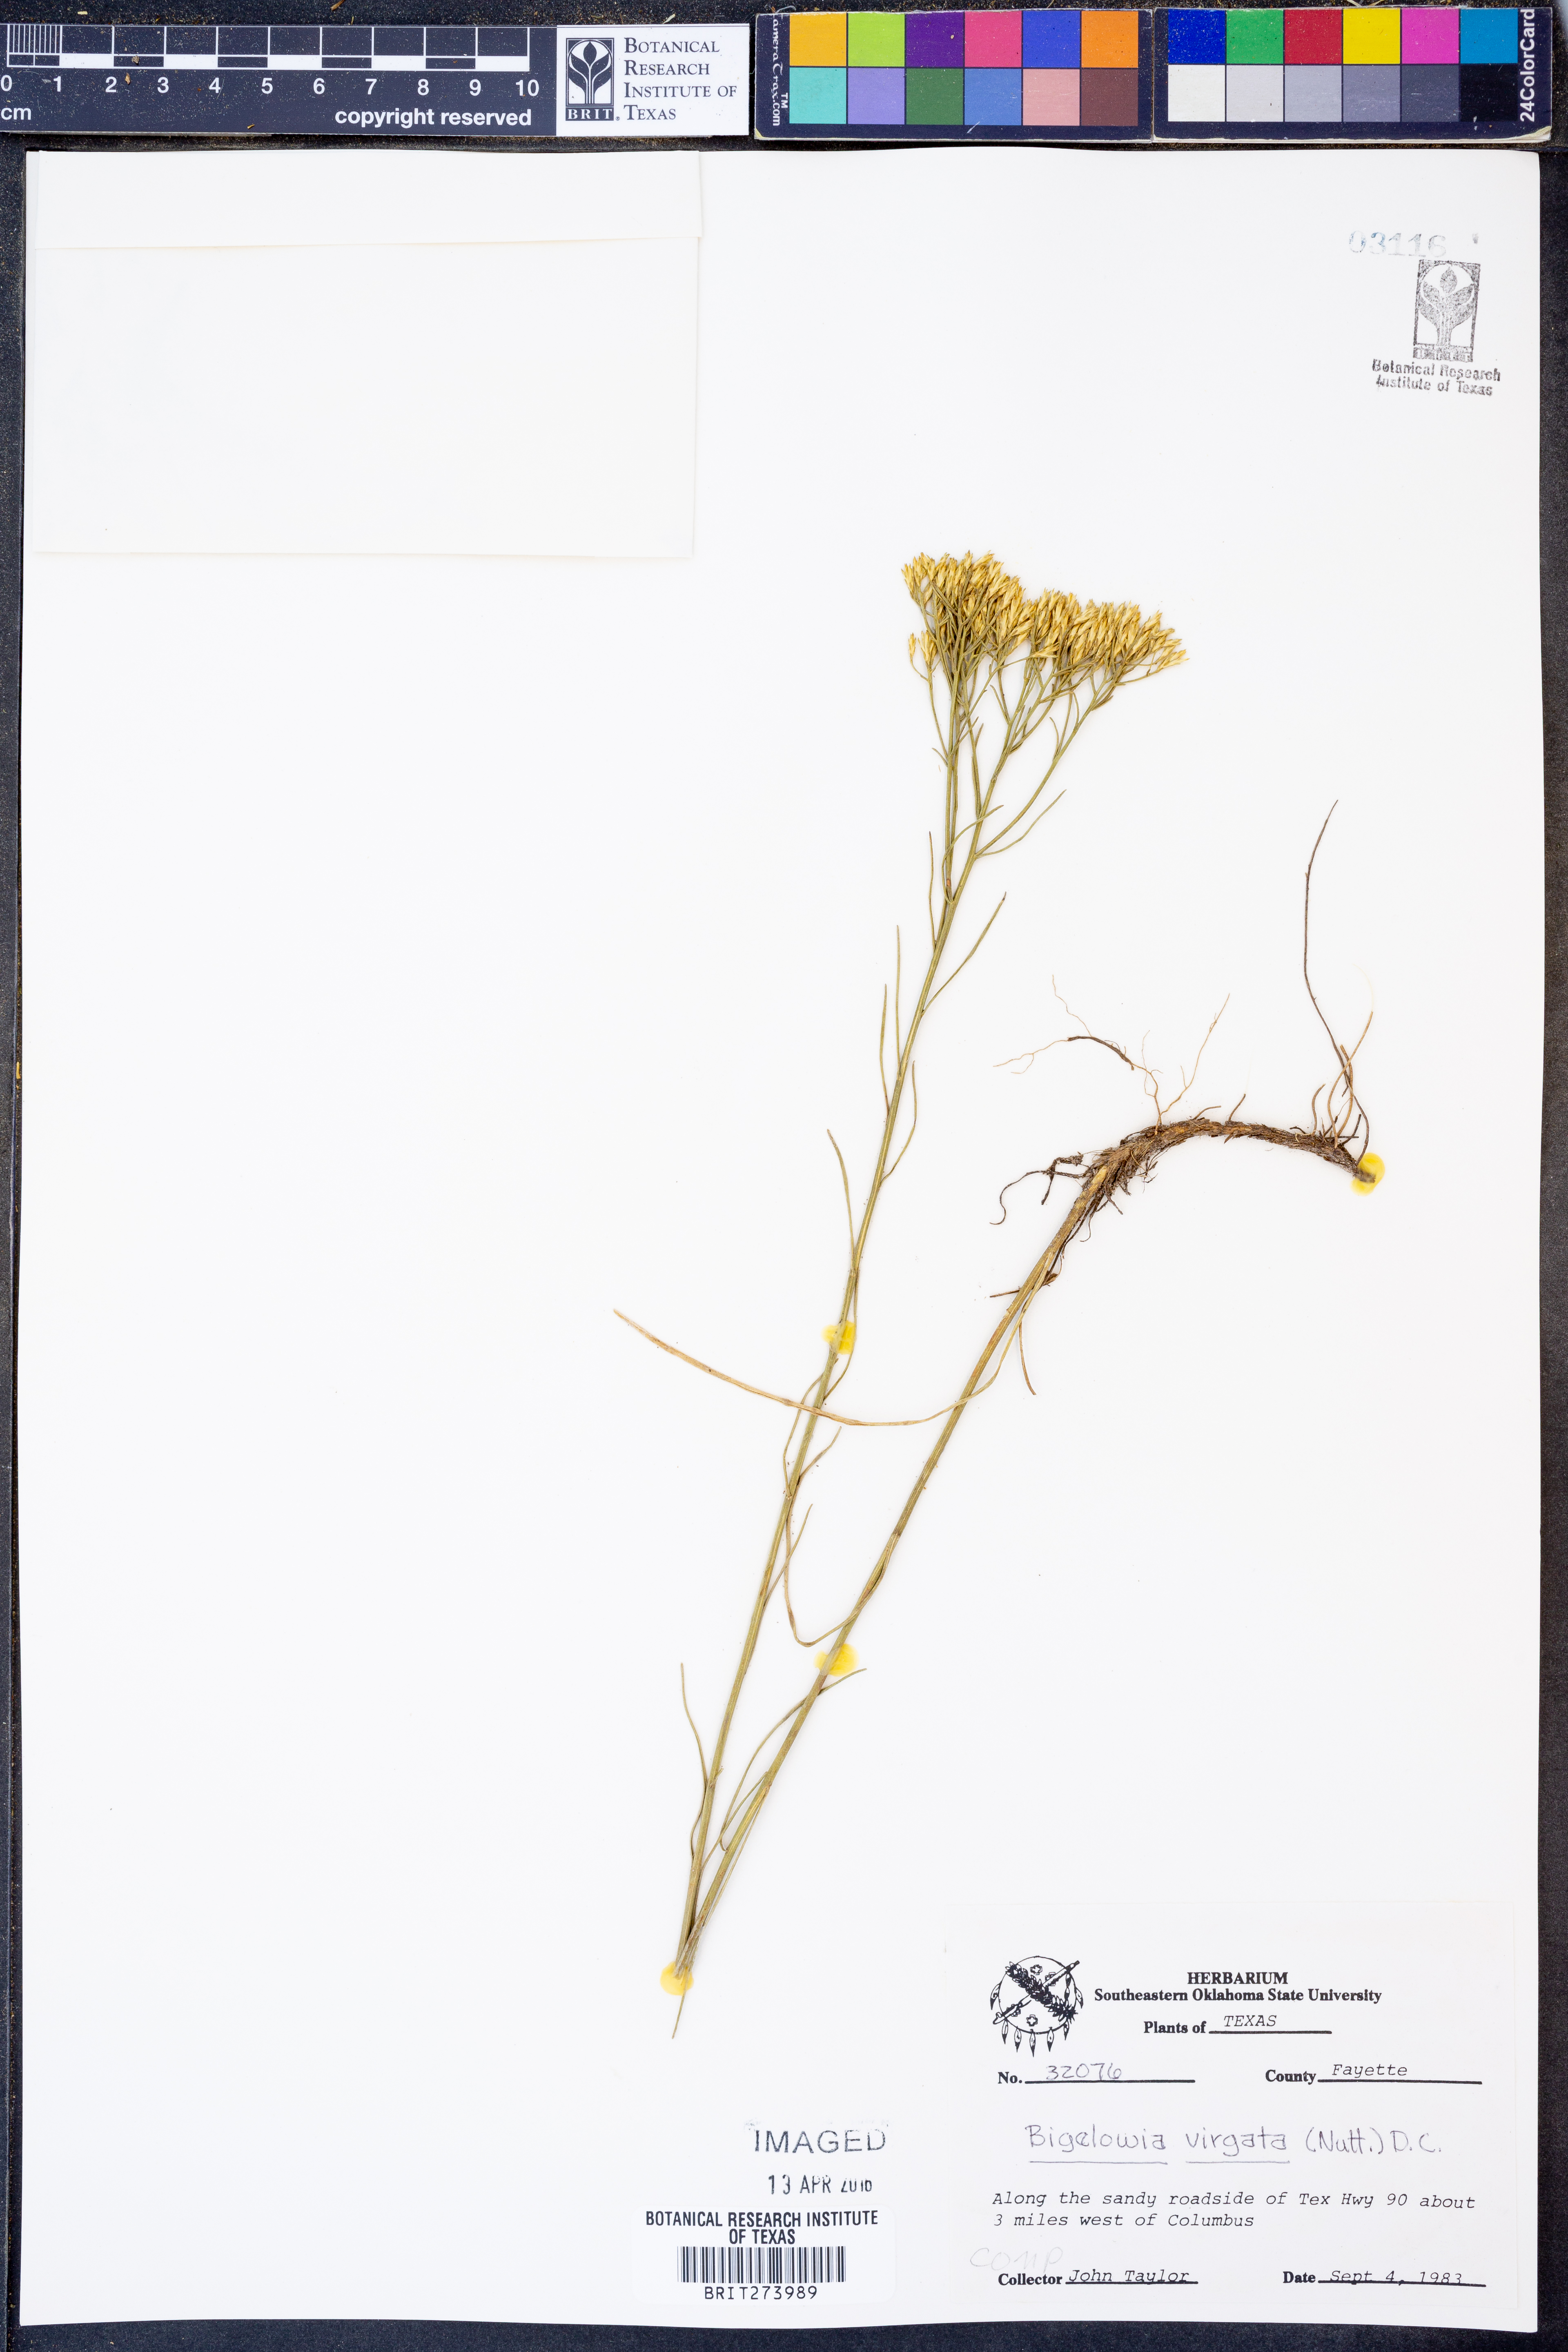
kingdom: Plantae
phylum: Tracheophyta
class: Magnoliopsida
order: Asterales
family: Asteraceae
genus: Bigelowia
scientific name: Bigelowia nudata
